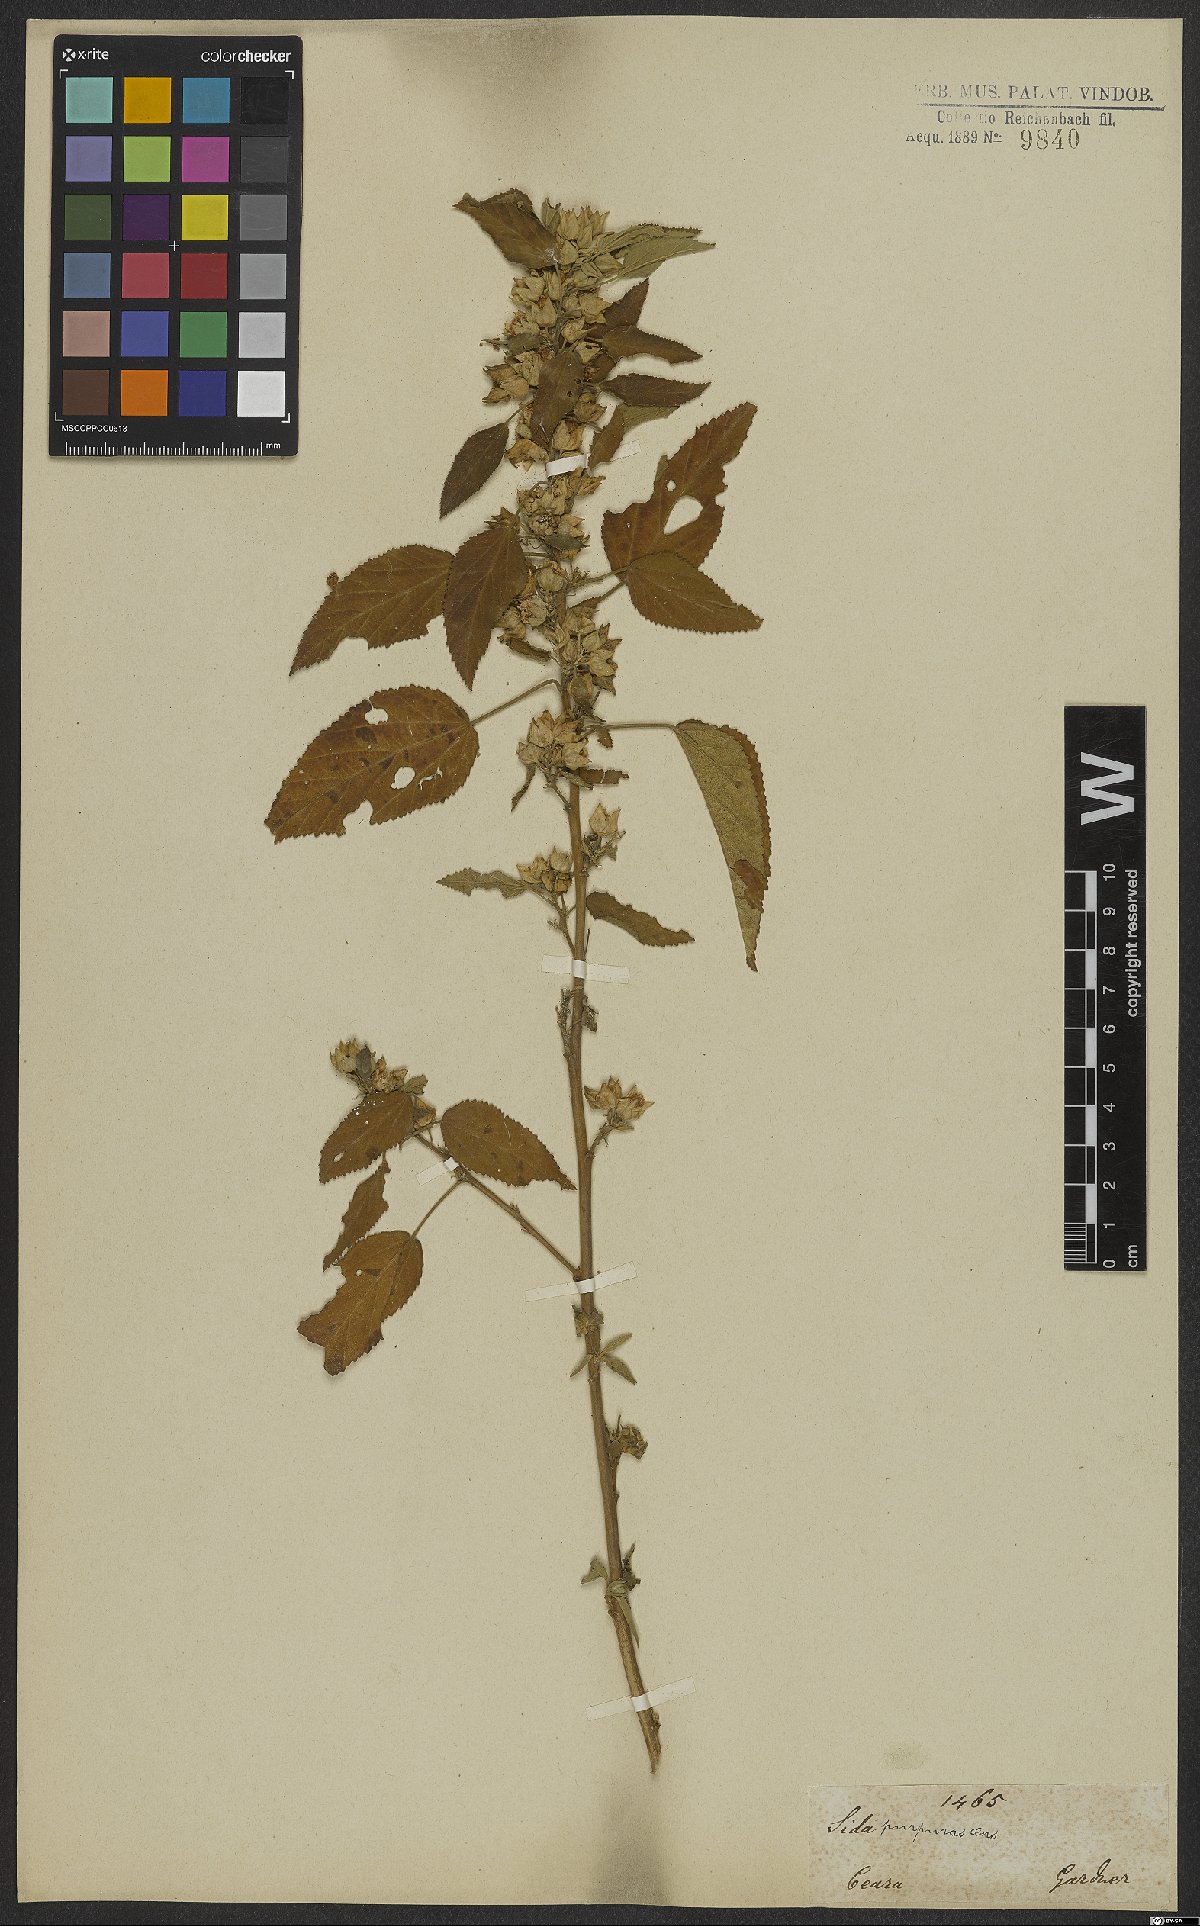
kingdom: Plantae
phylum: Tracheophyta
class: Magnoliopsida
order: Malvales
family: Malvaceae
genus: Bakeridesia
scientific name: Bakeridesia esculenta
